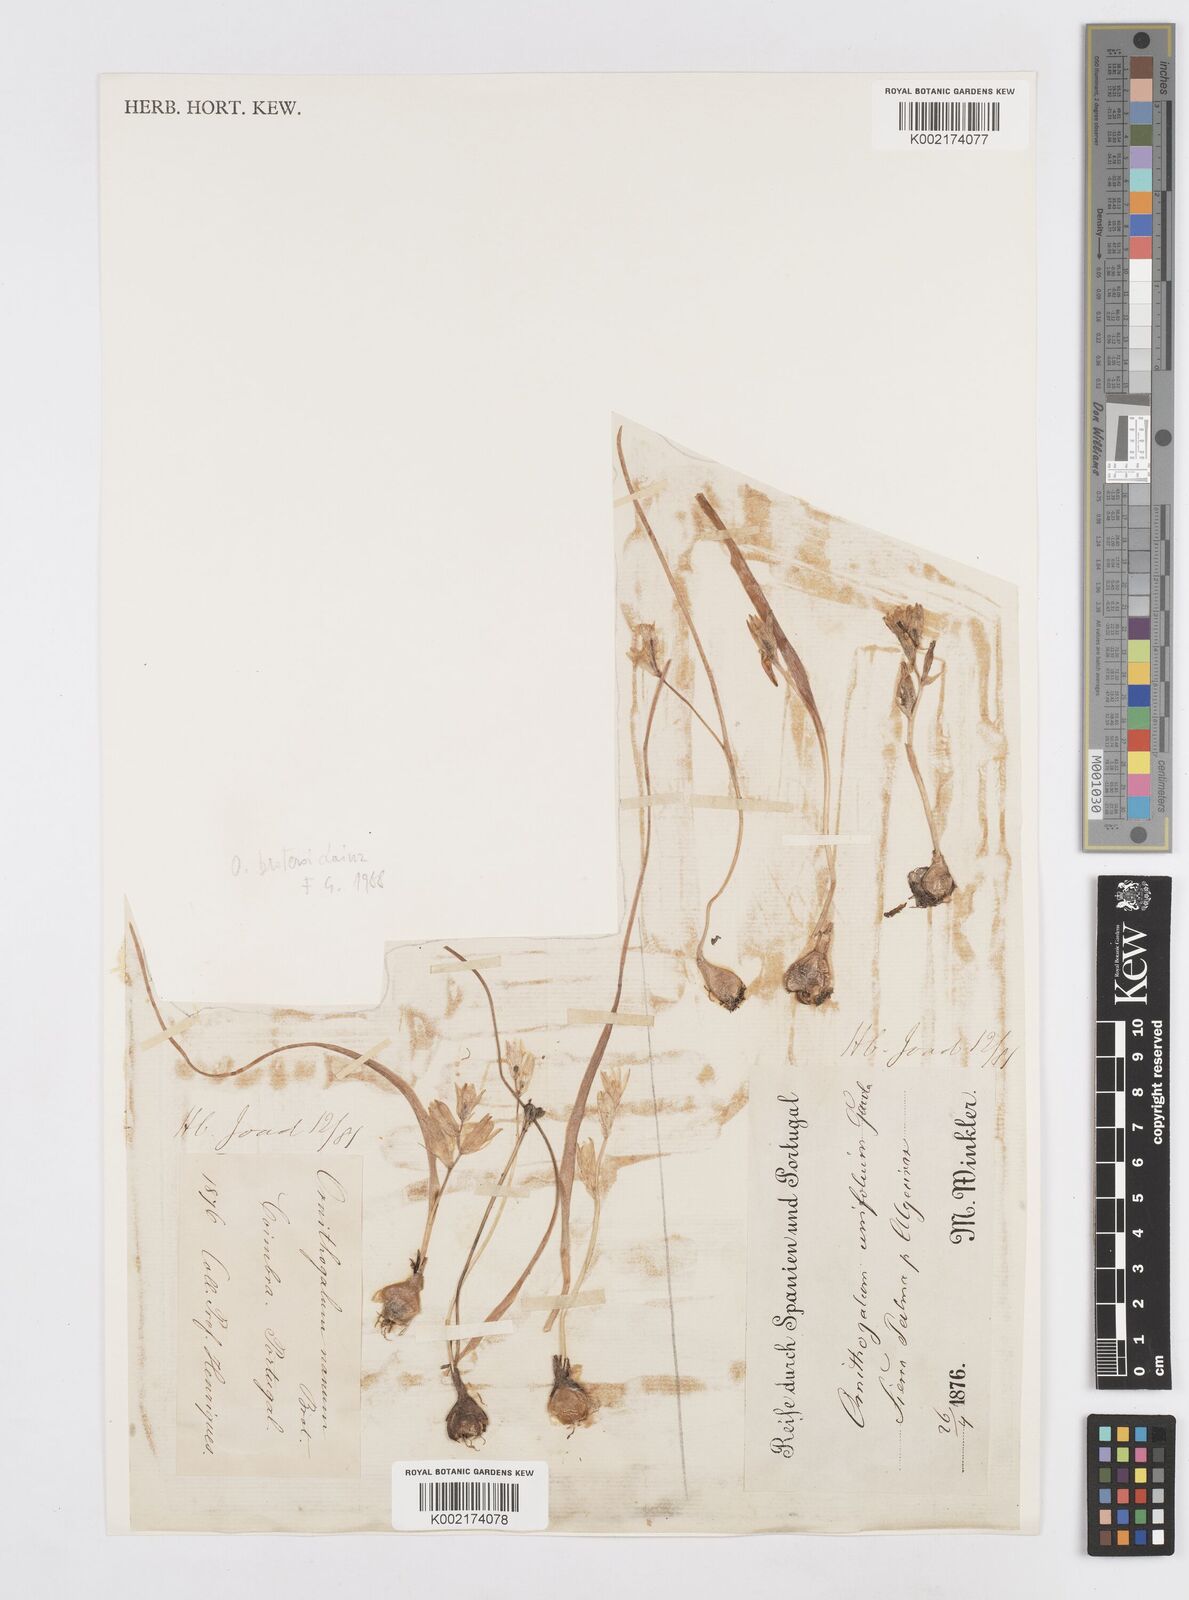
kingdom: Plantae
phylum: Tracheophyta
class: Liliopsida
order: Asparagales
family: Asparagaceae
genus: Ornithogalum
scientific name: Ornithogalum broteroi
